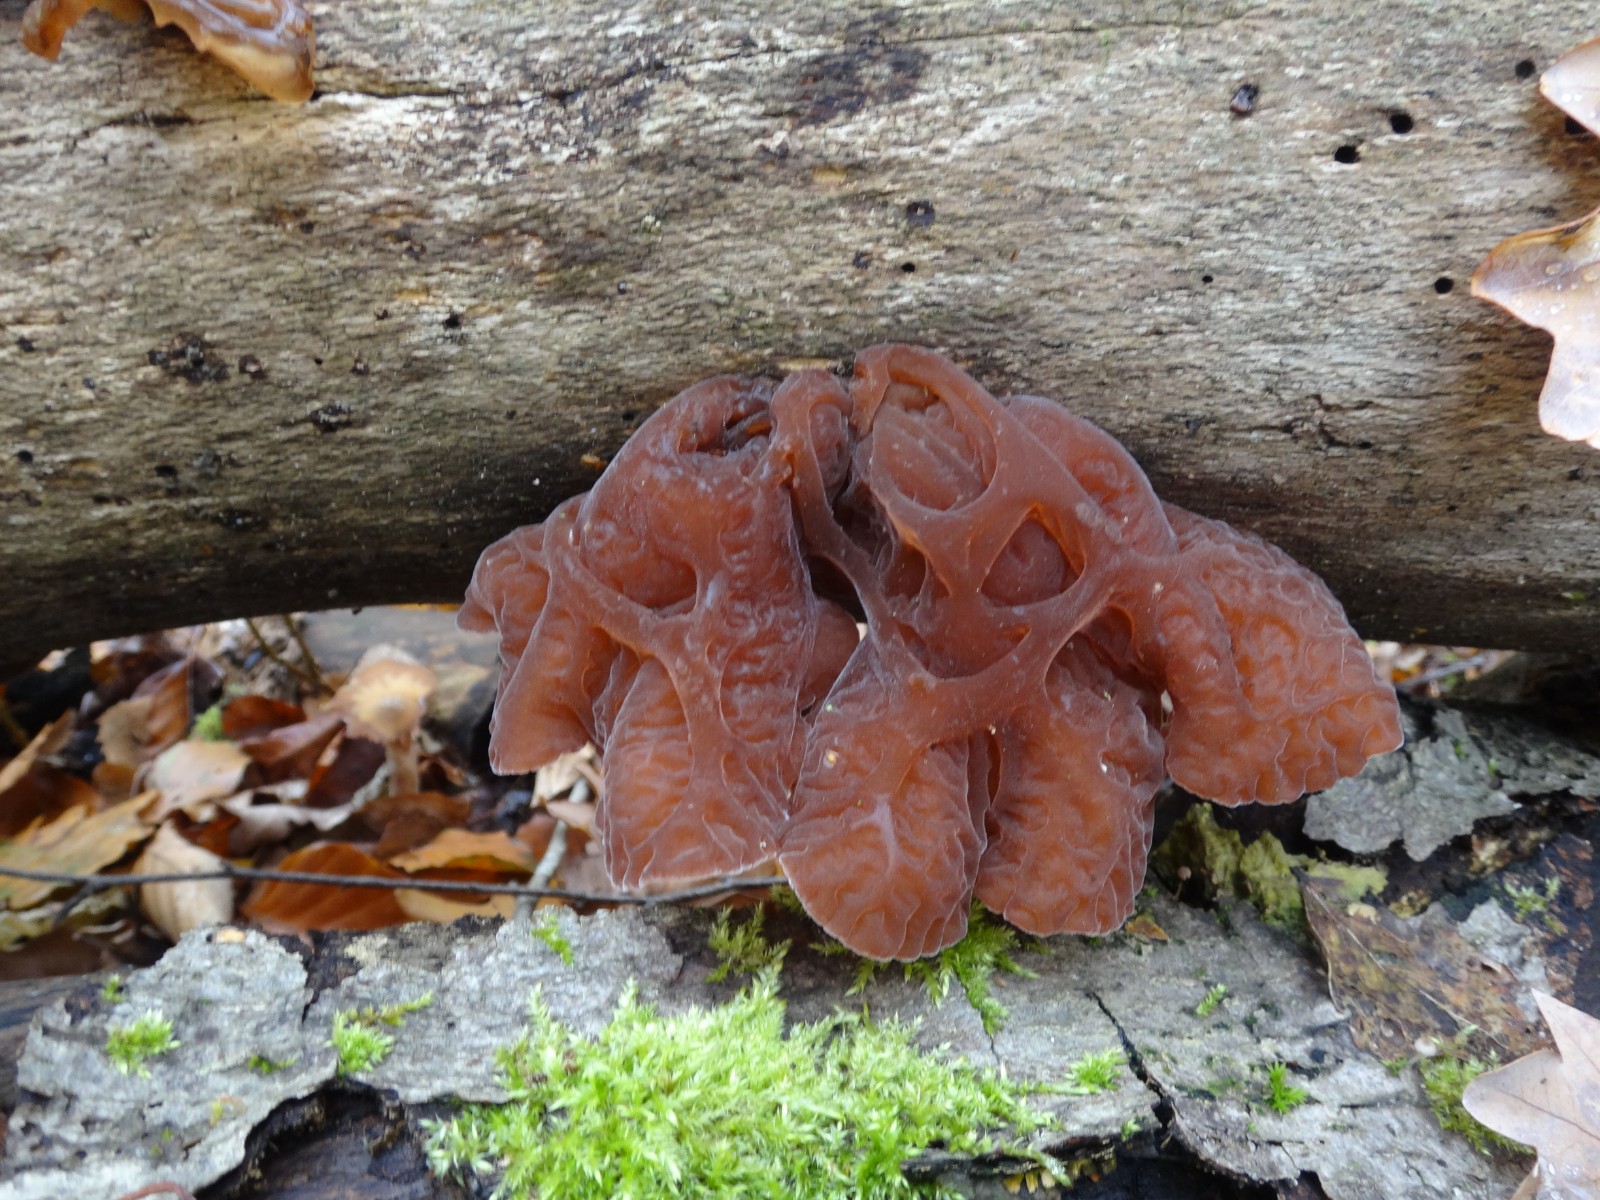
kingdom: Fungi
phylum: Basidiomycota
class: Agaricomycetes
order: Auriculariales
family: Auriculariaceae
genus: Auricularia
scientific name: Auricularia auricula-judae
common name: almindelig judasøre
